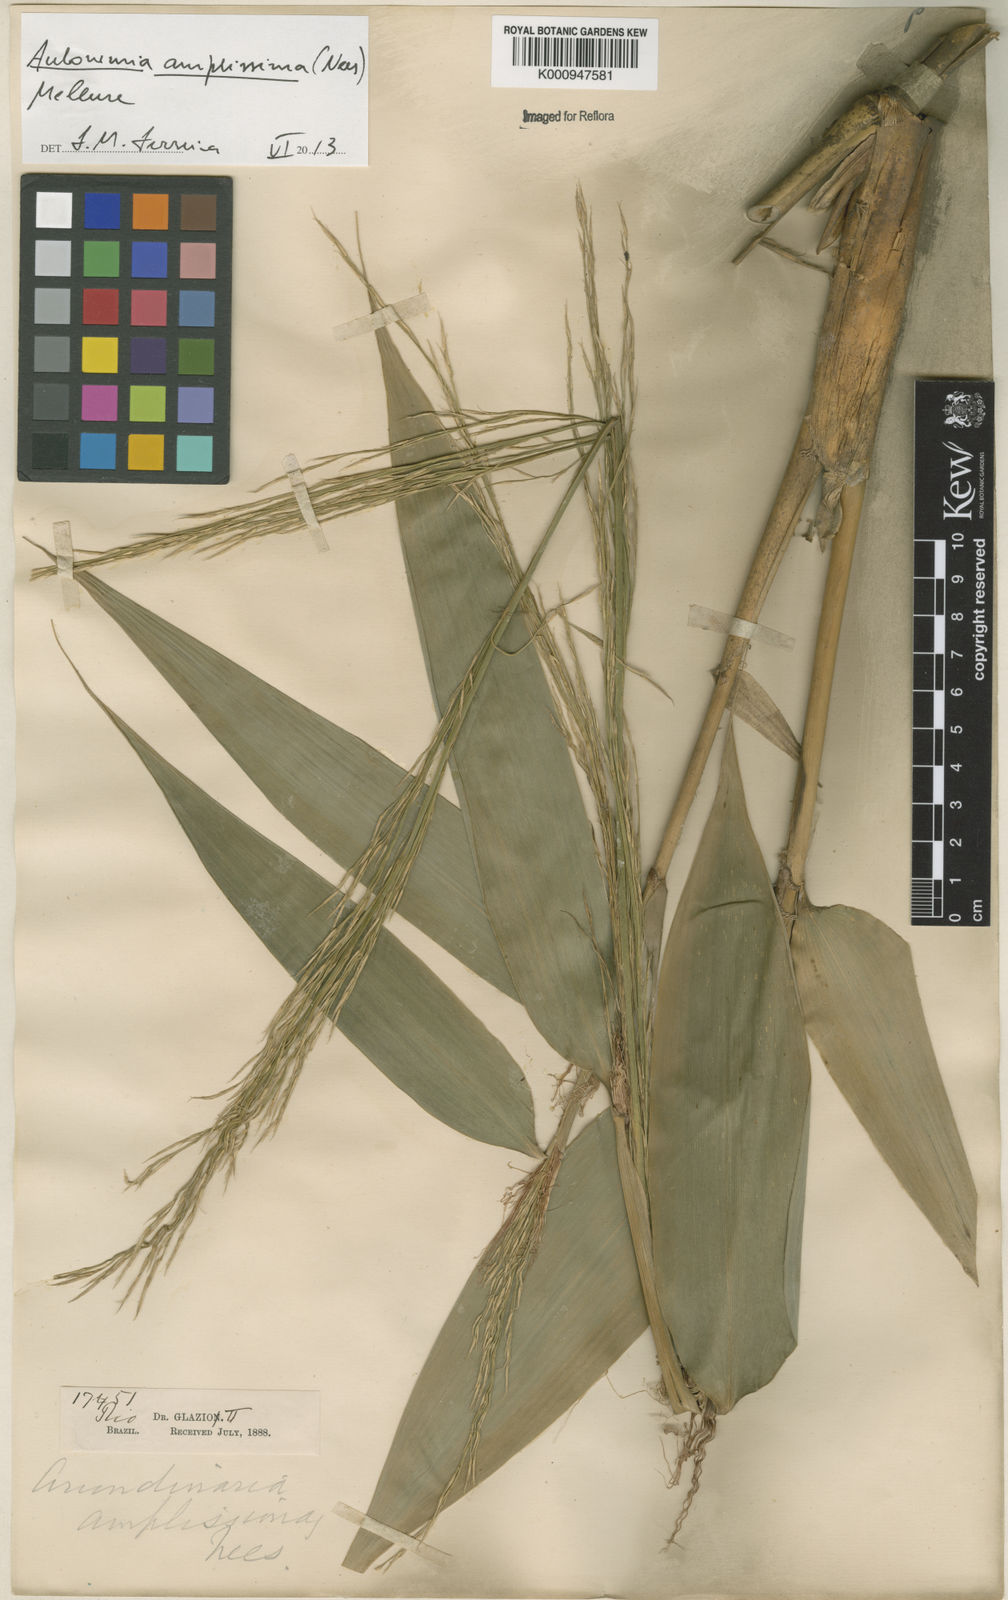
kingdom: Plantae
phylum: Tracheophyta
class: Liliopsida
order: Poales
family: Poaceae
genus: Aulonemia
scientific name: Aulonemia amplissima
